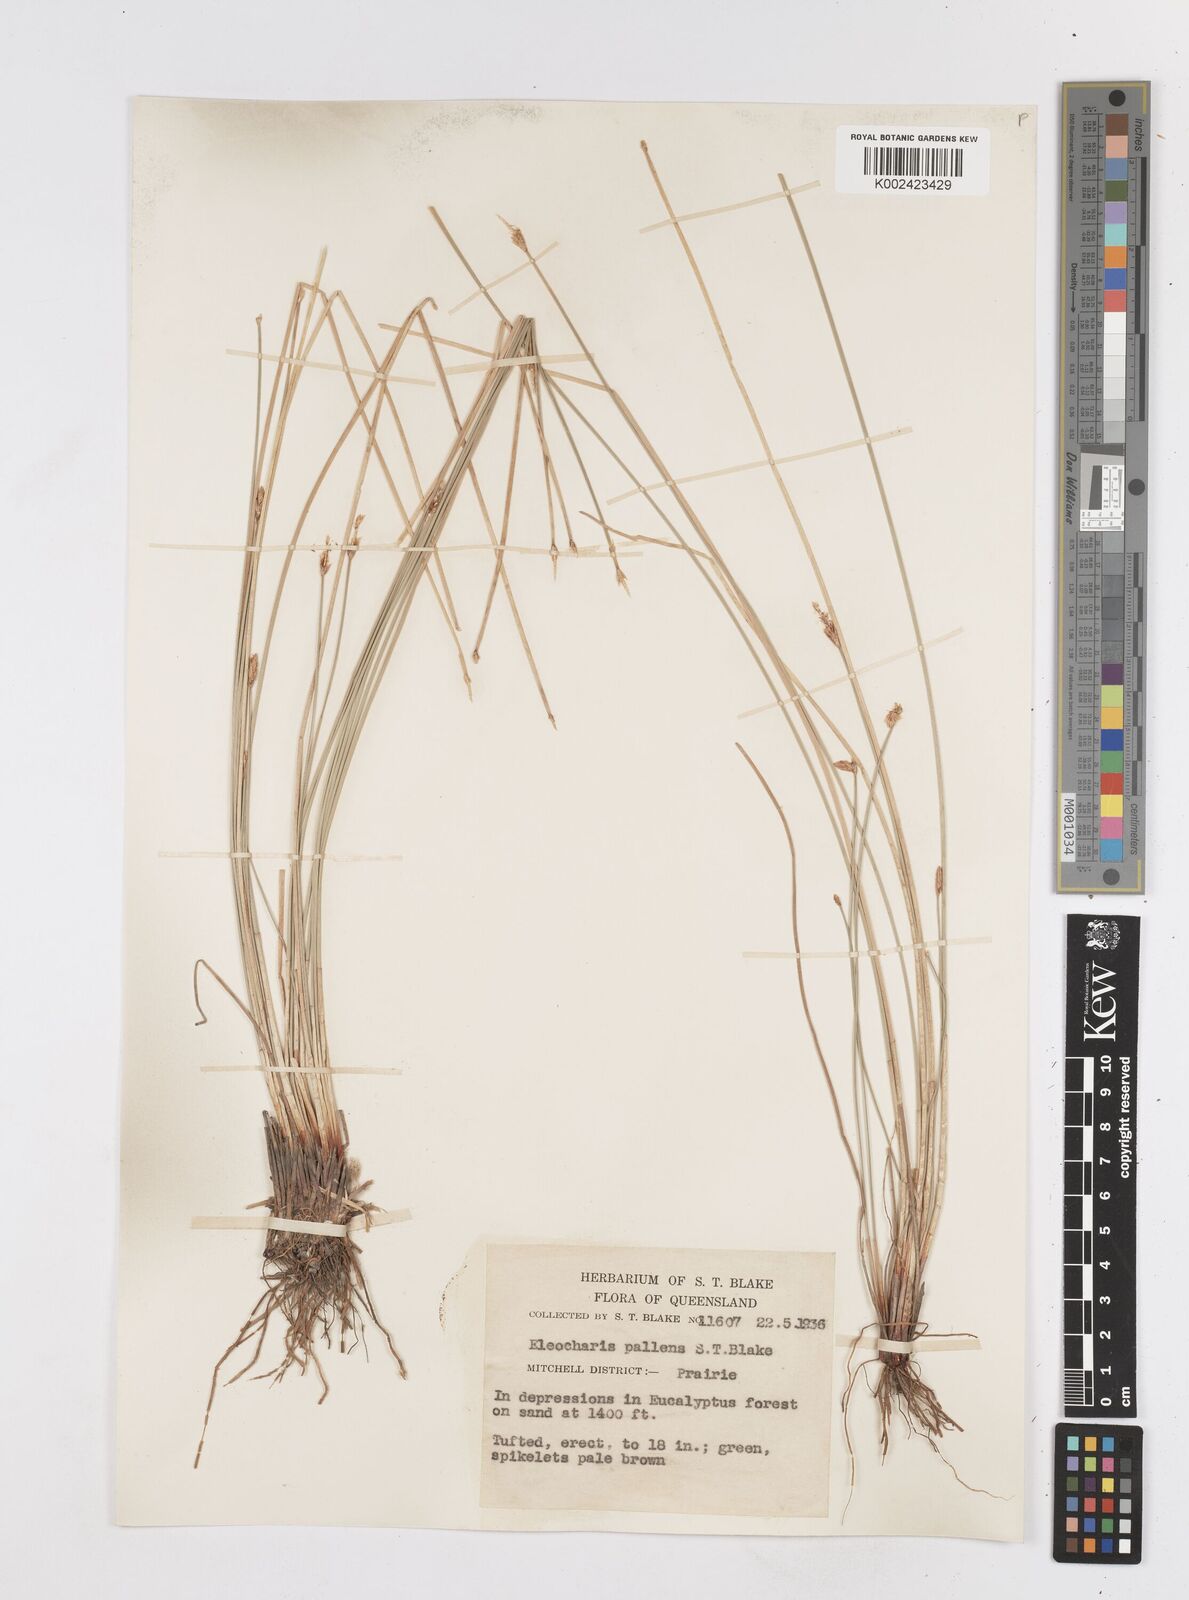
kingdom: Plantae
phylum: Tracheophyta
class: Liliopsida
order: Poales
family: Cyperaceae
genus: Eleocharis
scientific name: Eleocharis acuta
